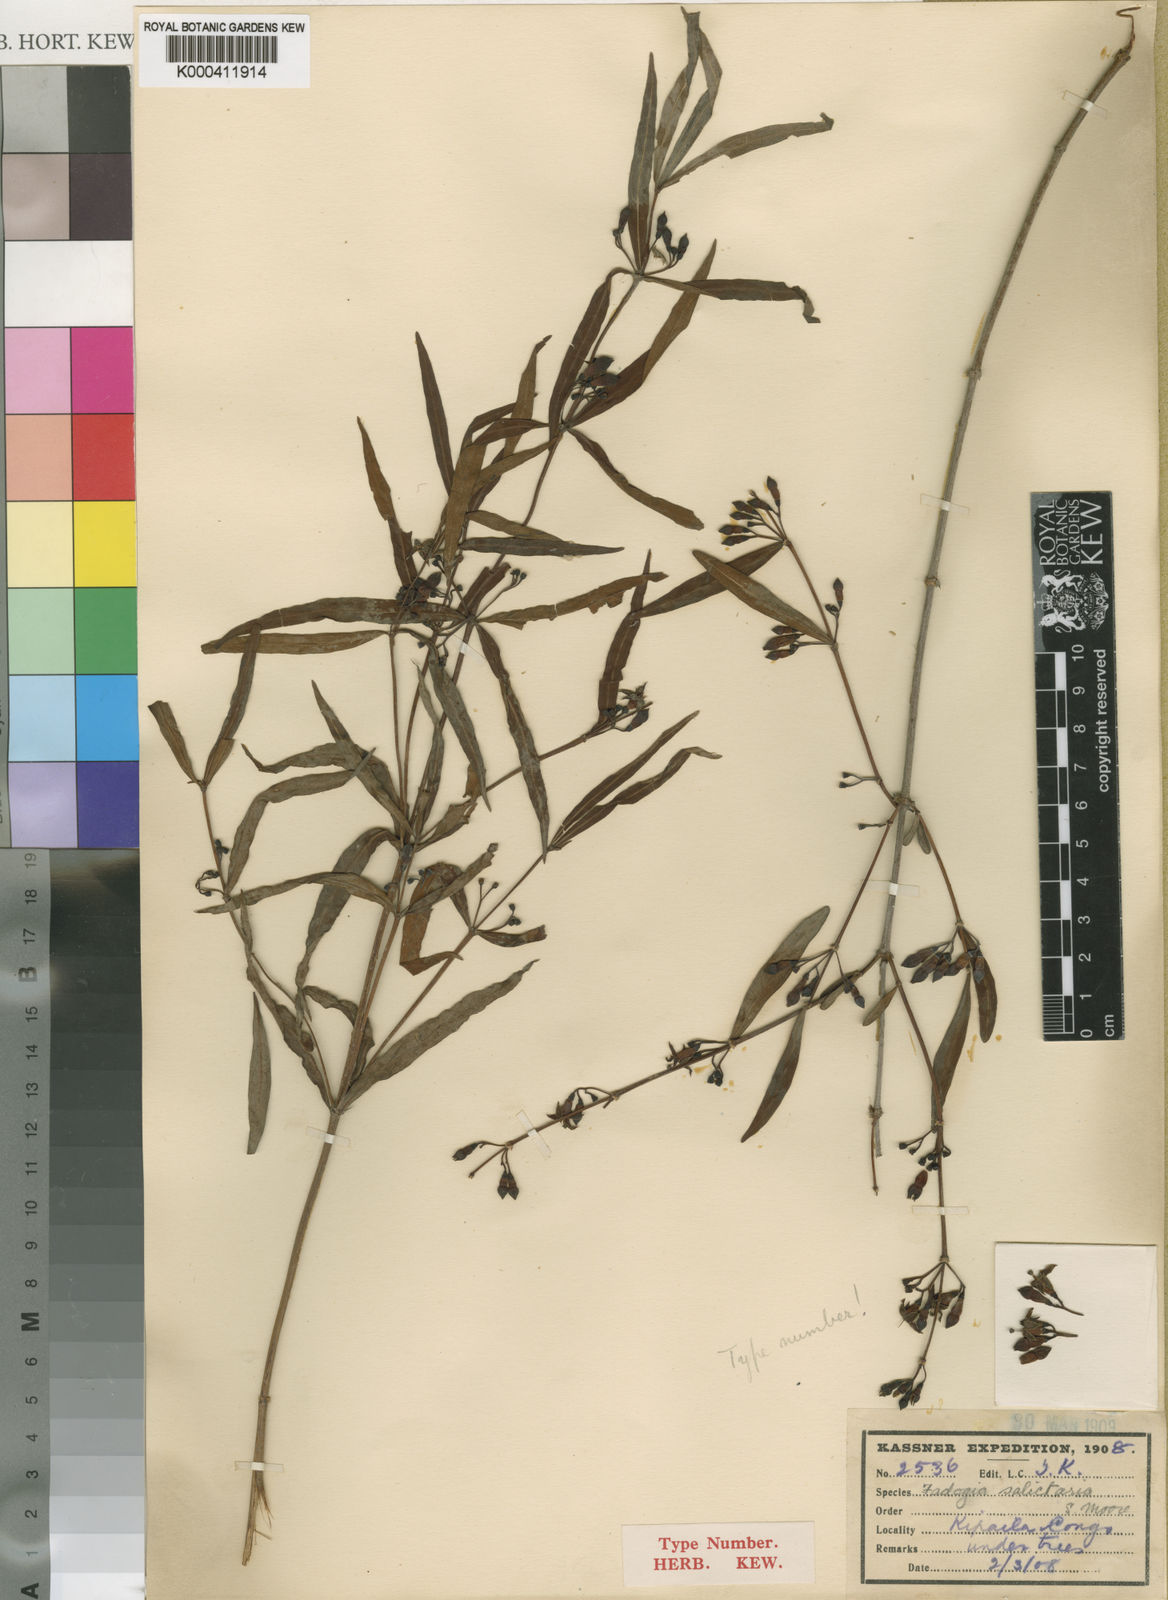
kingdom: Plantae
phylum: Tracheophyta
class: Magnoliopsida
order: Gentianales
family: Rubiaceae
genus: Fadogia
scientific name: Fadogia salictaria
